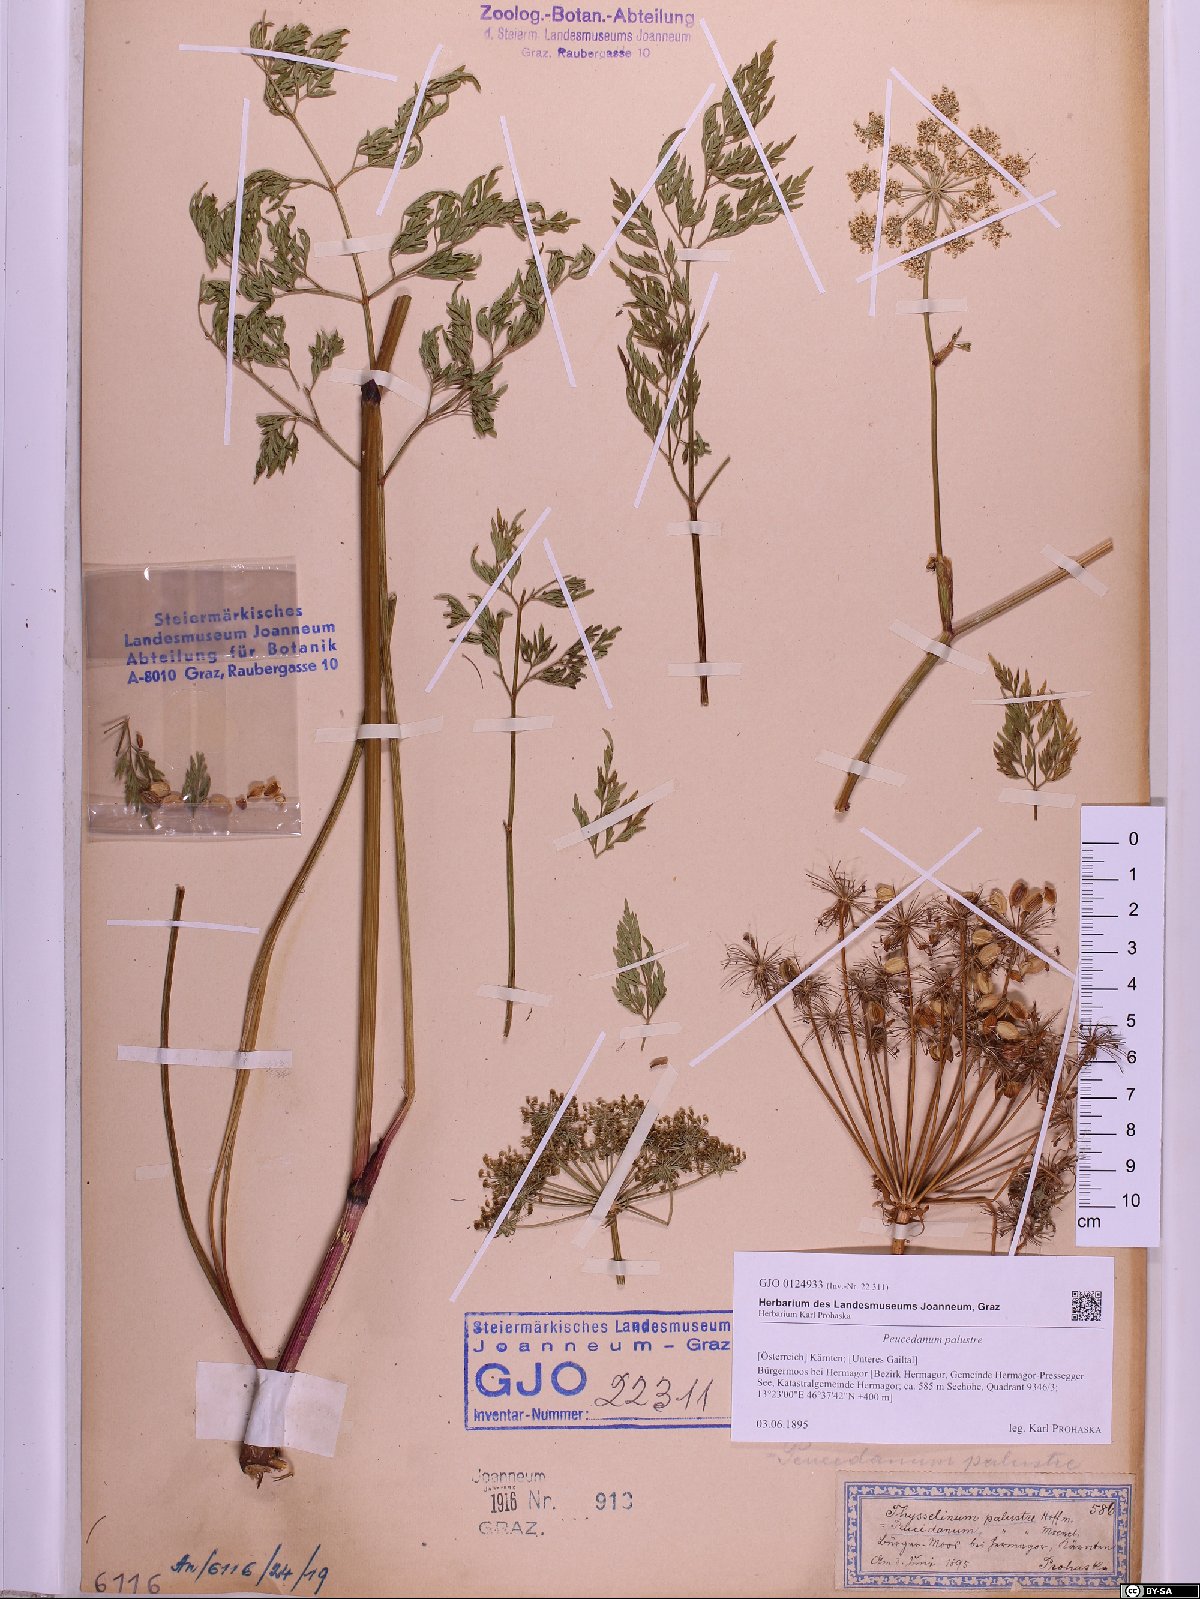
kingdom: Plantae
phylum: Tracheophyta
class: Magnoliopsida
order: Apiales
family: Apiaceae
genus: Thysselinum
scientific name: Thysselinum palustre
